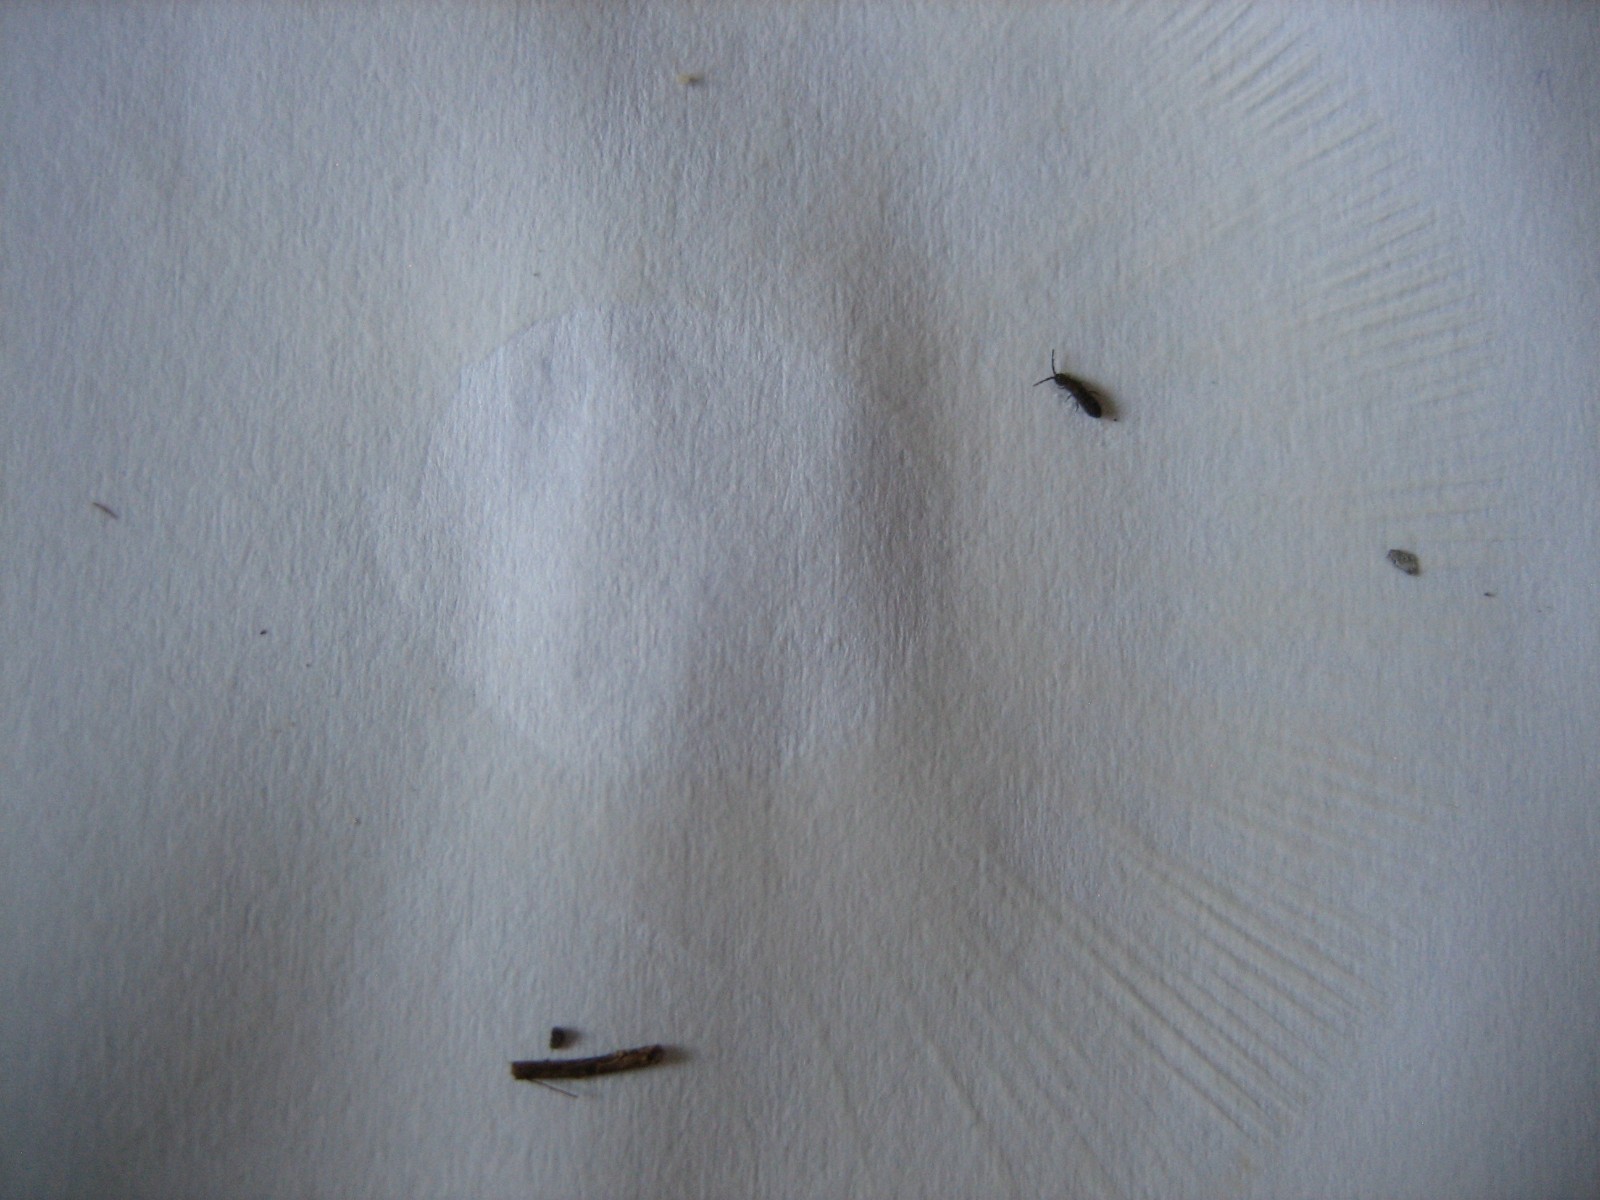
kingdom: Fungi
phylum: Basidiomycota
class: Agaricomycetes
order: Russulales
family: Russulaceae
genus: Russula
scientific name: Russula
